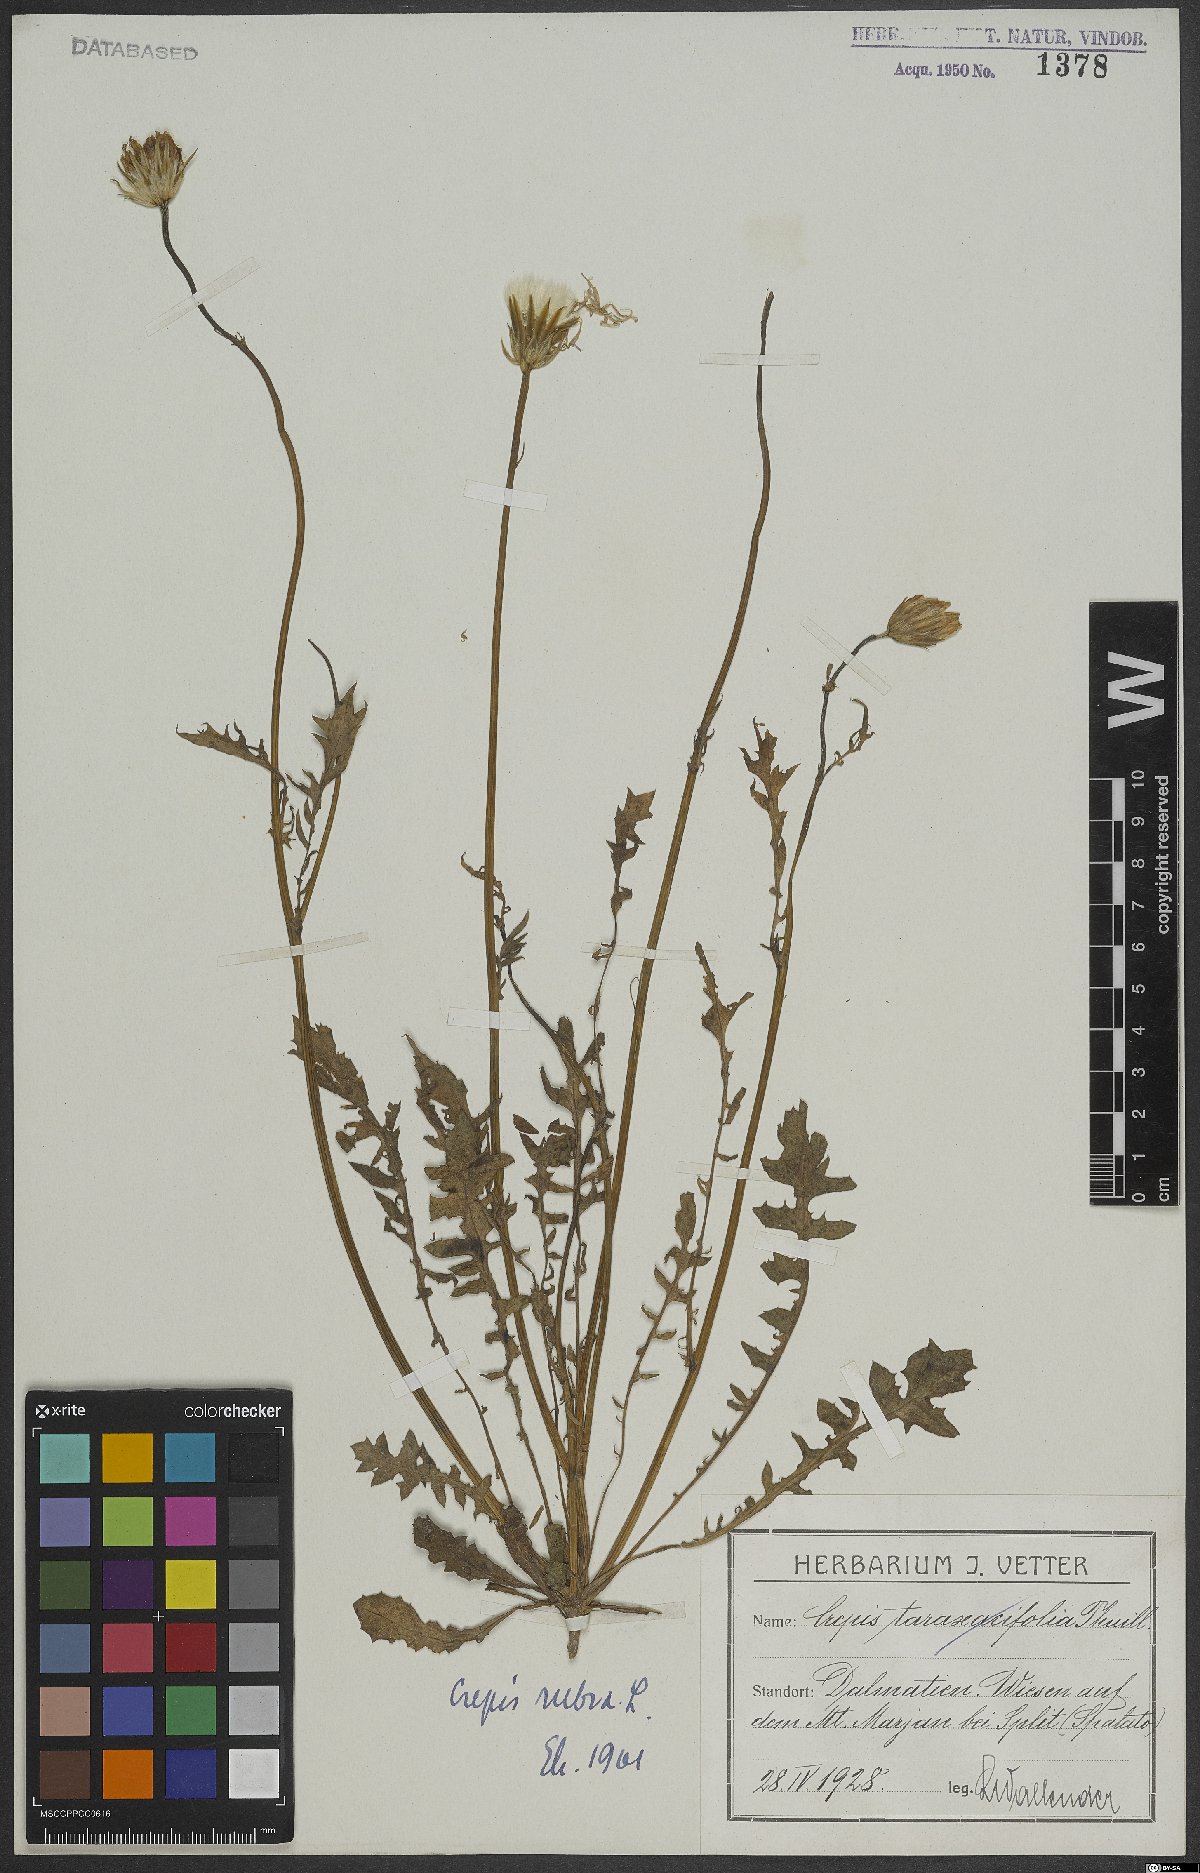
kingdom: Plantae
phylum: Tracheophyta
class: Magnoliopsida
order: Asterales
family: Asteraceae
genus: Crepis
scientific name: Crepis rubra
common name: Pink hawk's-beard
